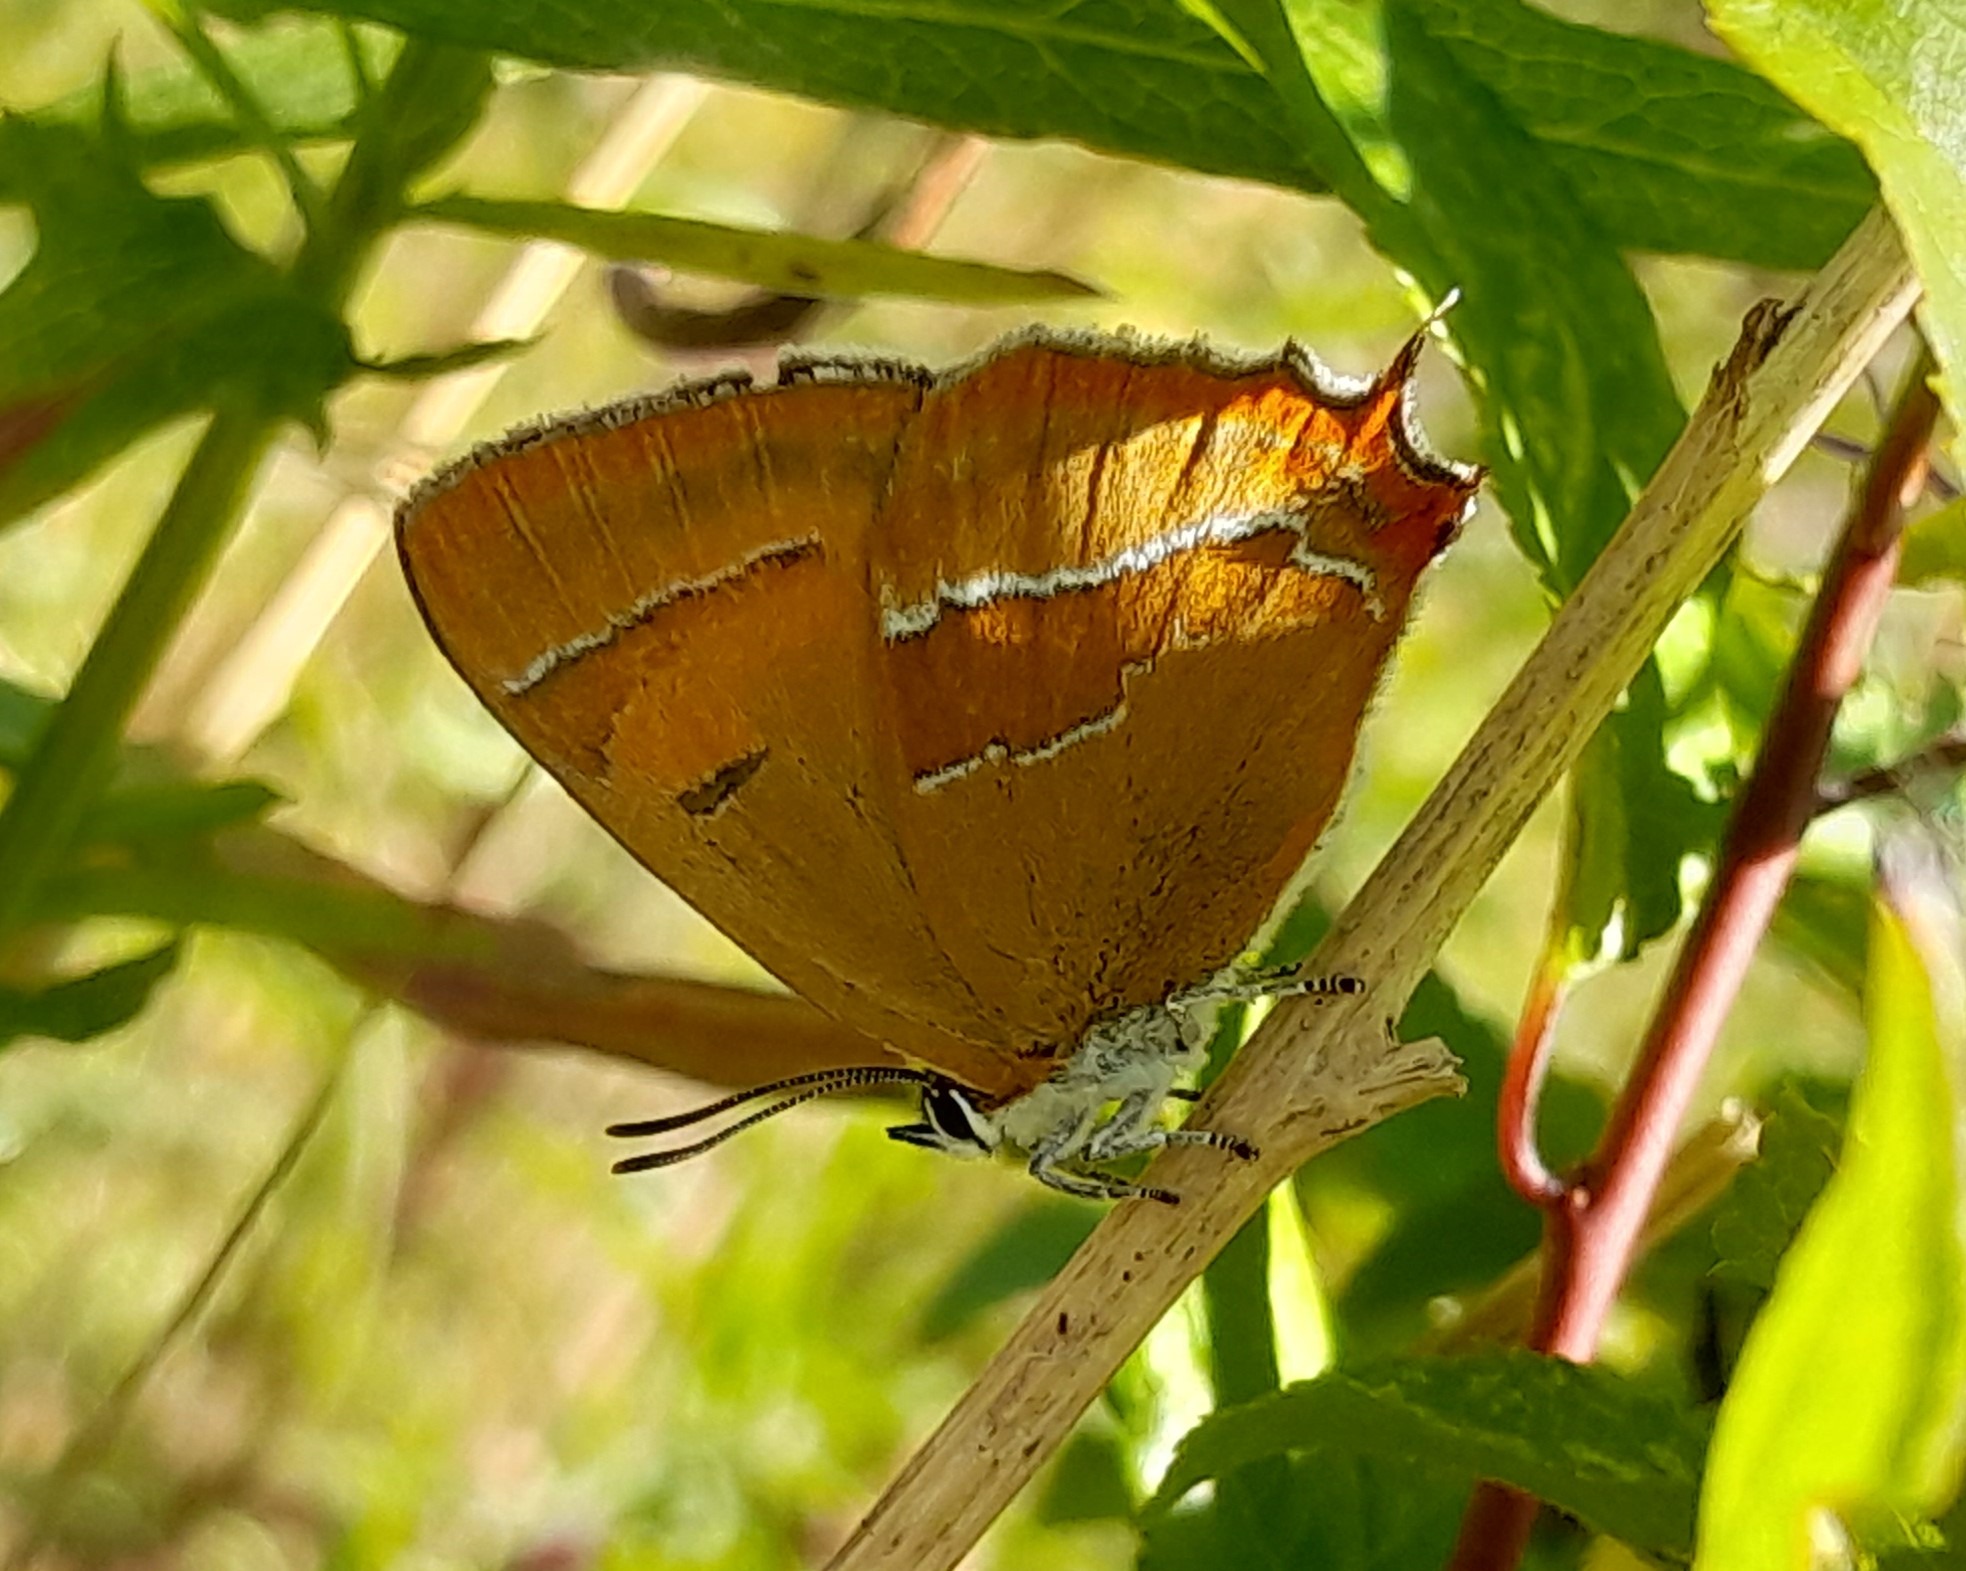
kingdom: Animalia
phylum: Arthropoda
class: Insecta
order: Lepidoptera
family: Lycaenidae
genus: Thecla
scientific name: Thecla betulae
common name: Guldhale
